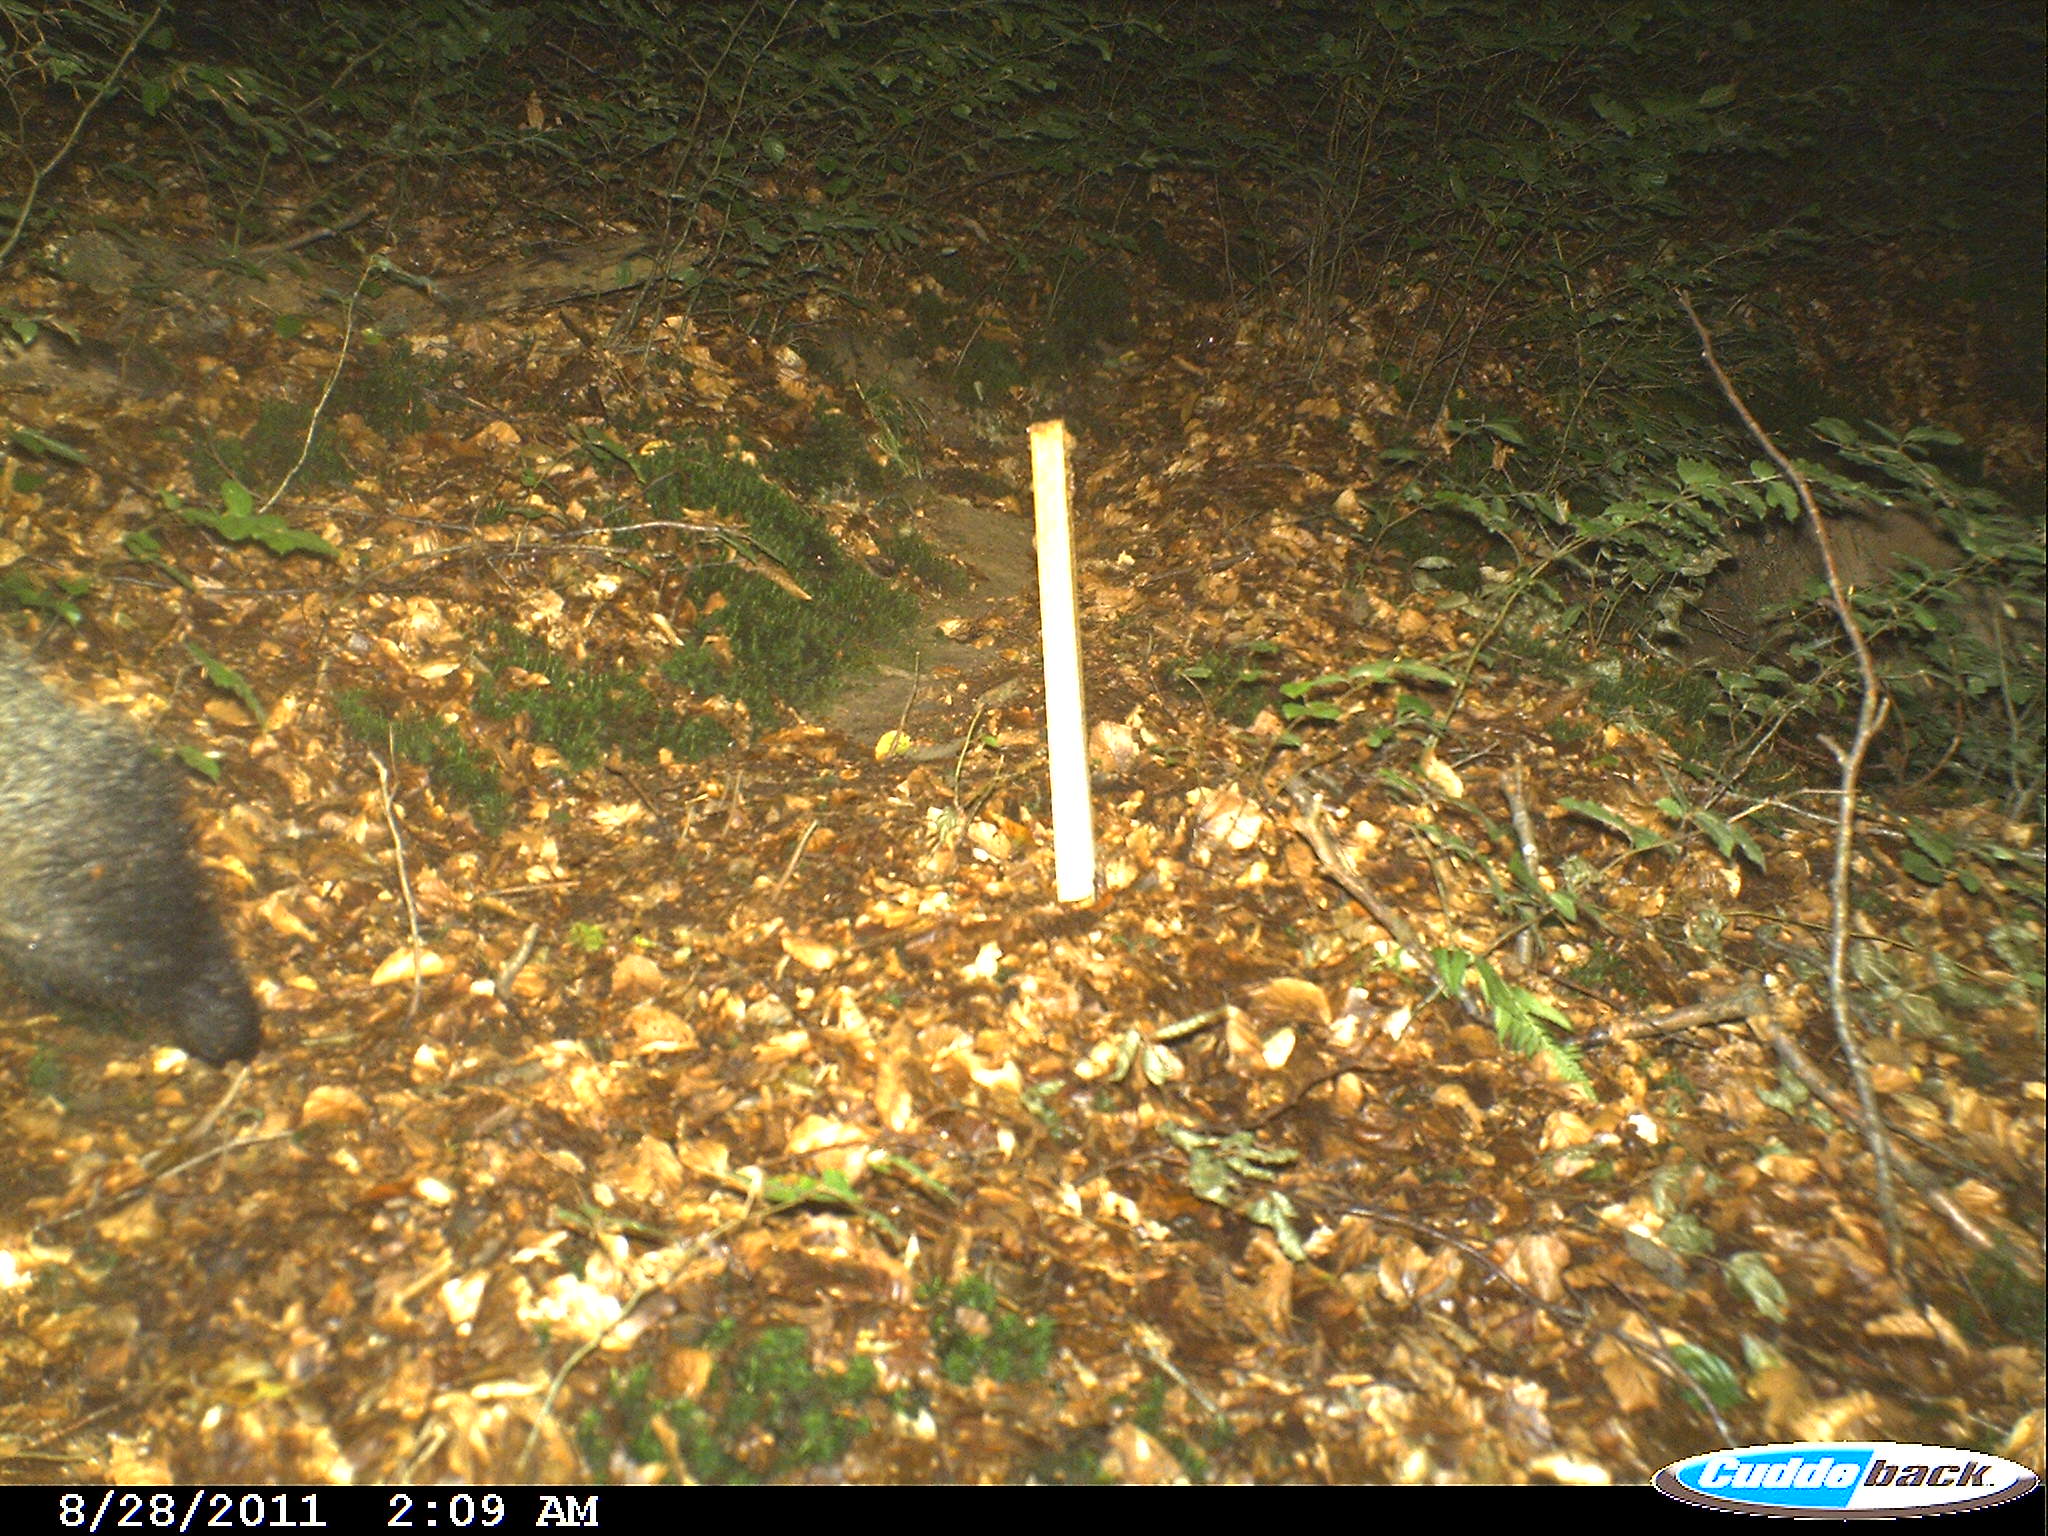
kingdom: Animalia
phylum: Chordata
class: Mammalia
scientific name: Mammalia
